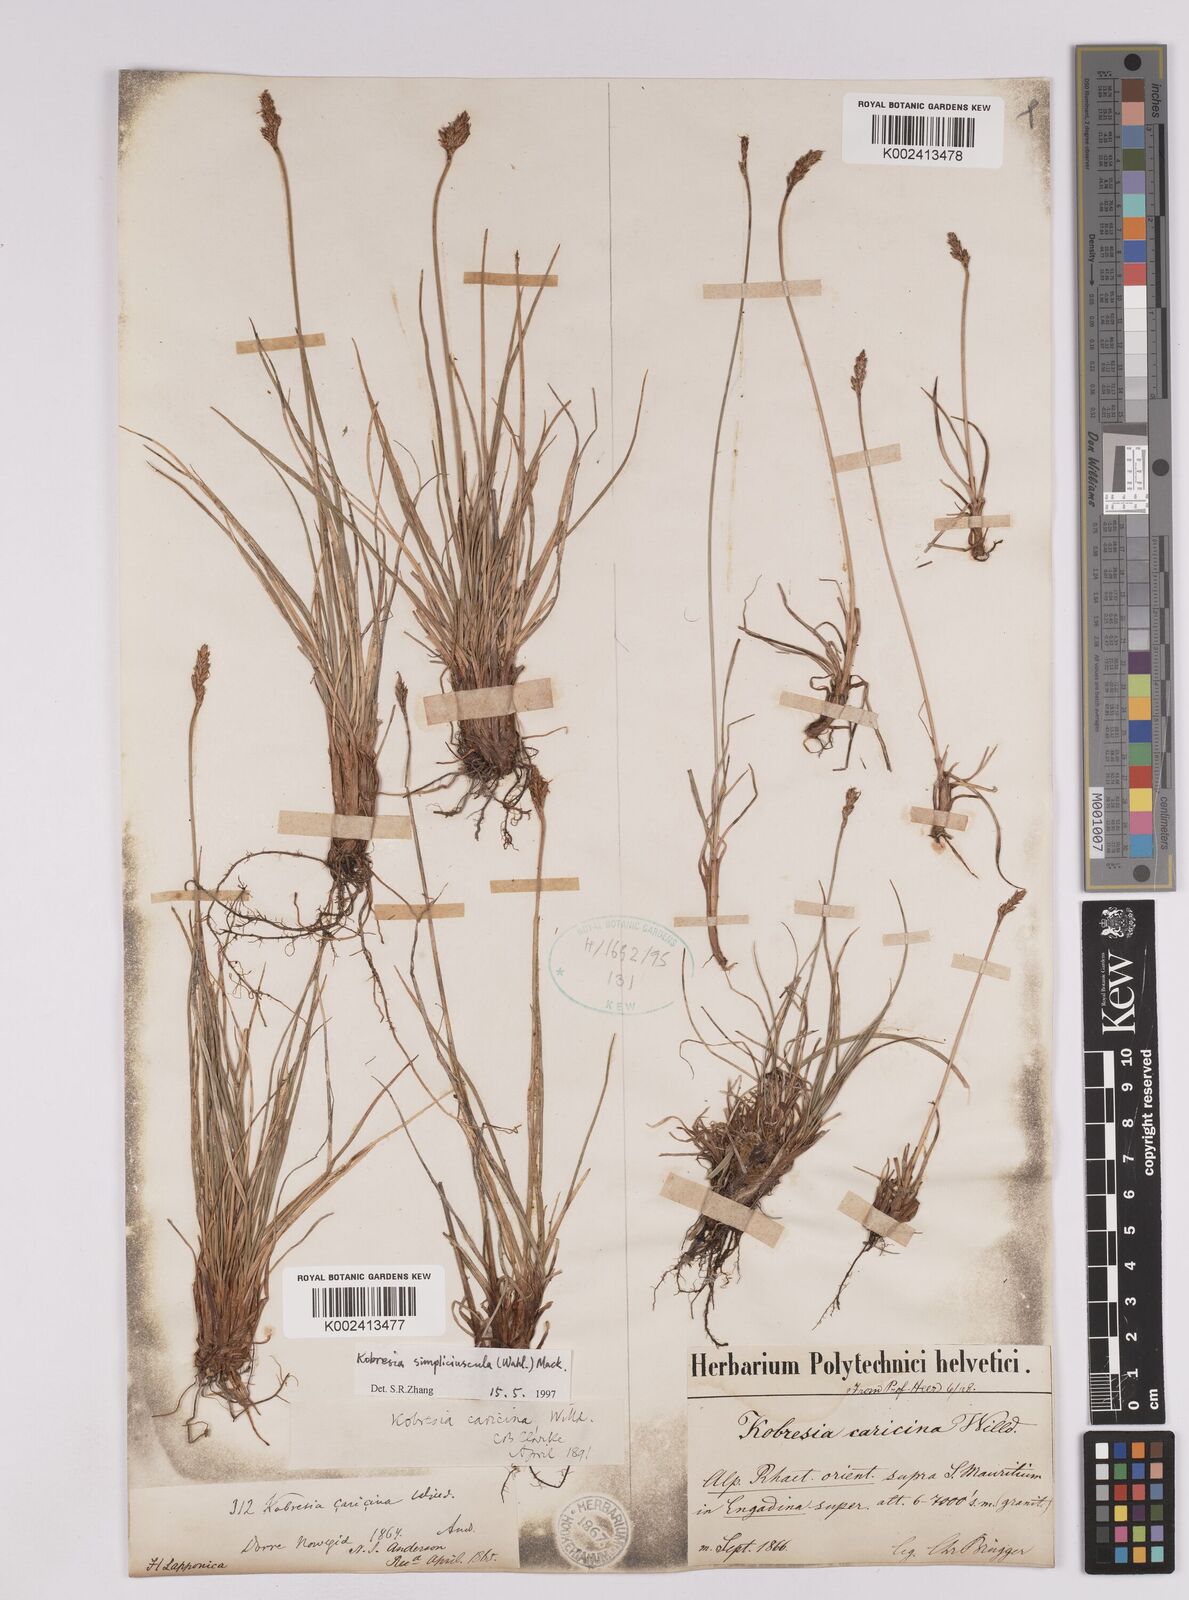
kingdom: Plantae
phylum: Tracheophyta
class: Liliopsida
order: Poales
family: Cyperaceae
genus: Carex
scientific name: Carex simpliciuscula
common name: Simple bog sedge
